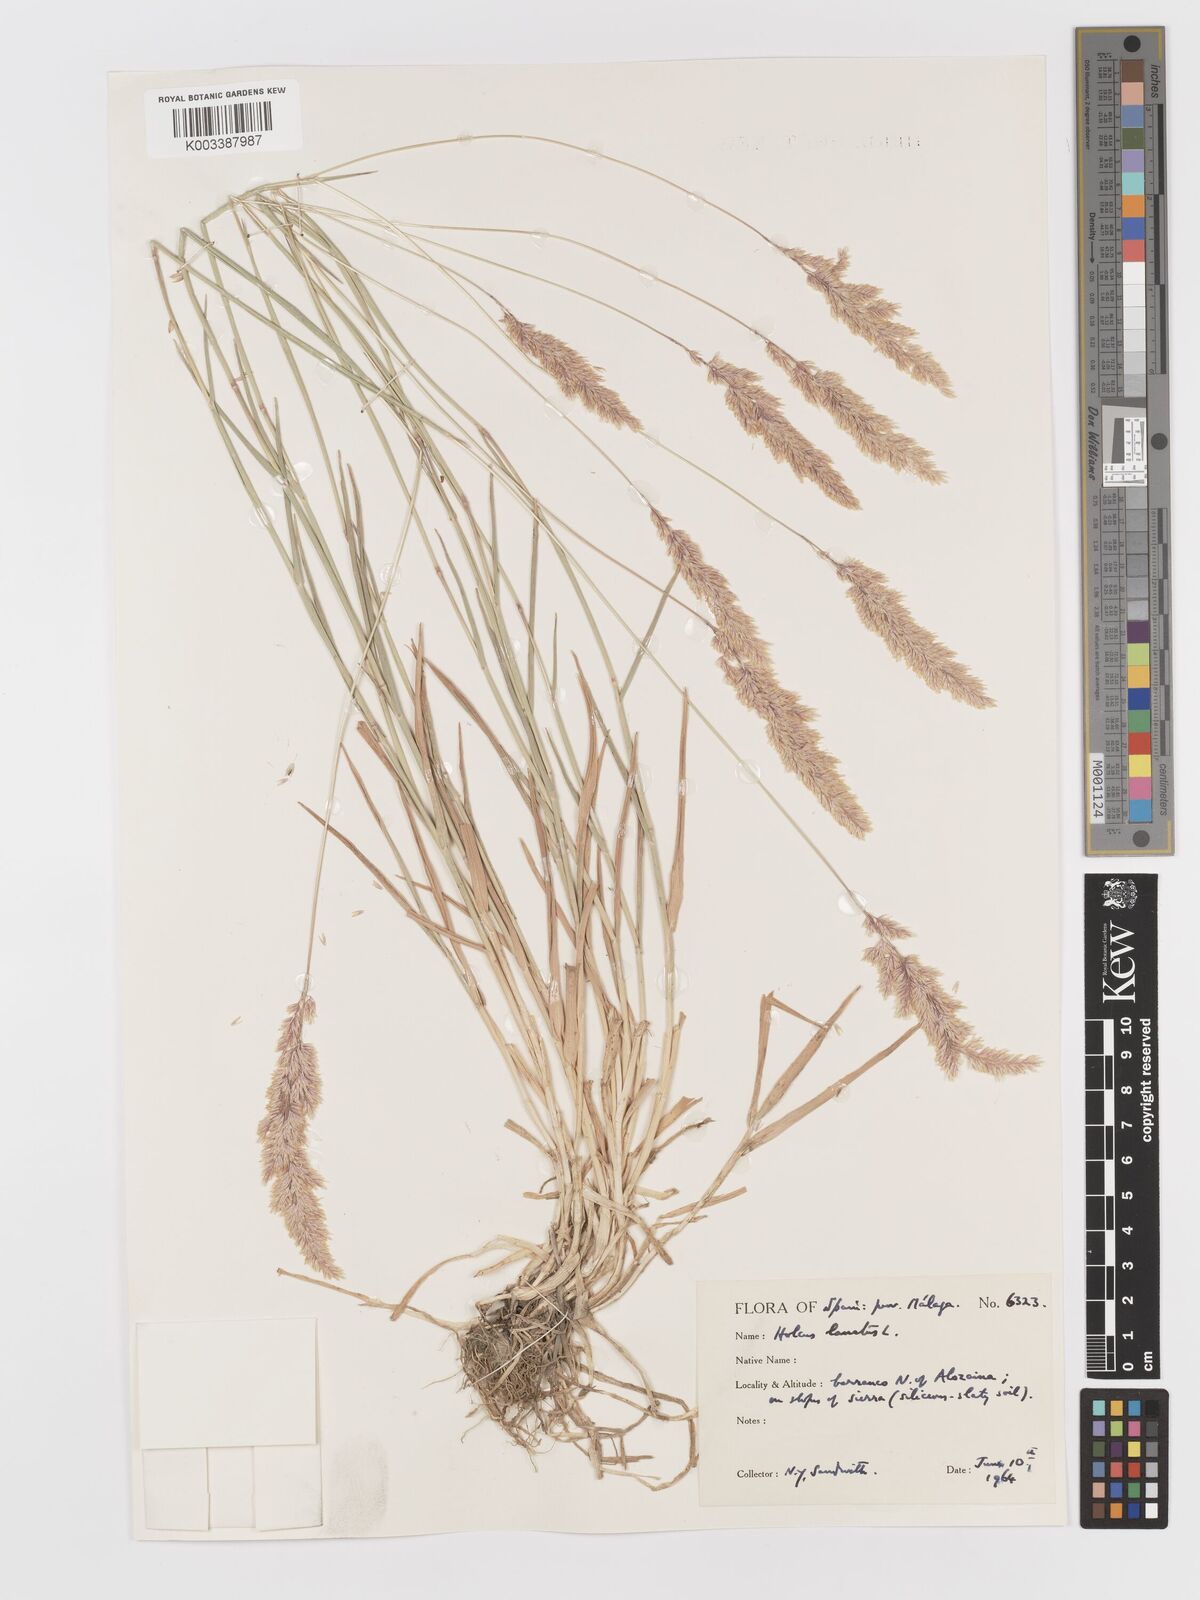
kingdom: Plantae
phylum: Tracheophyta
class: Liliopsida
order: Poales
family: Poaceae
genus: Holcus
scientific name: Holcus lanatus
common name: Yorkshire-fog
